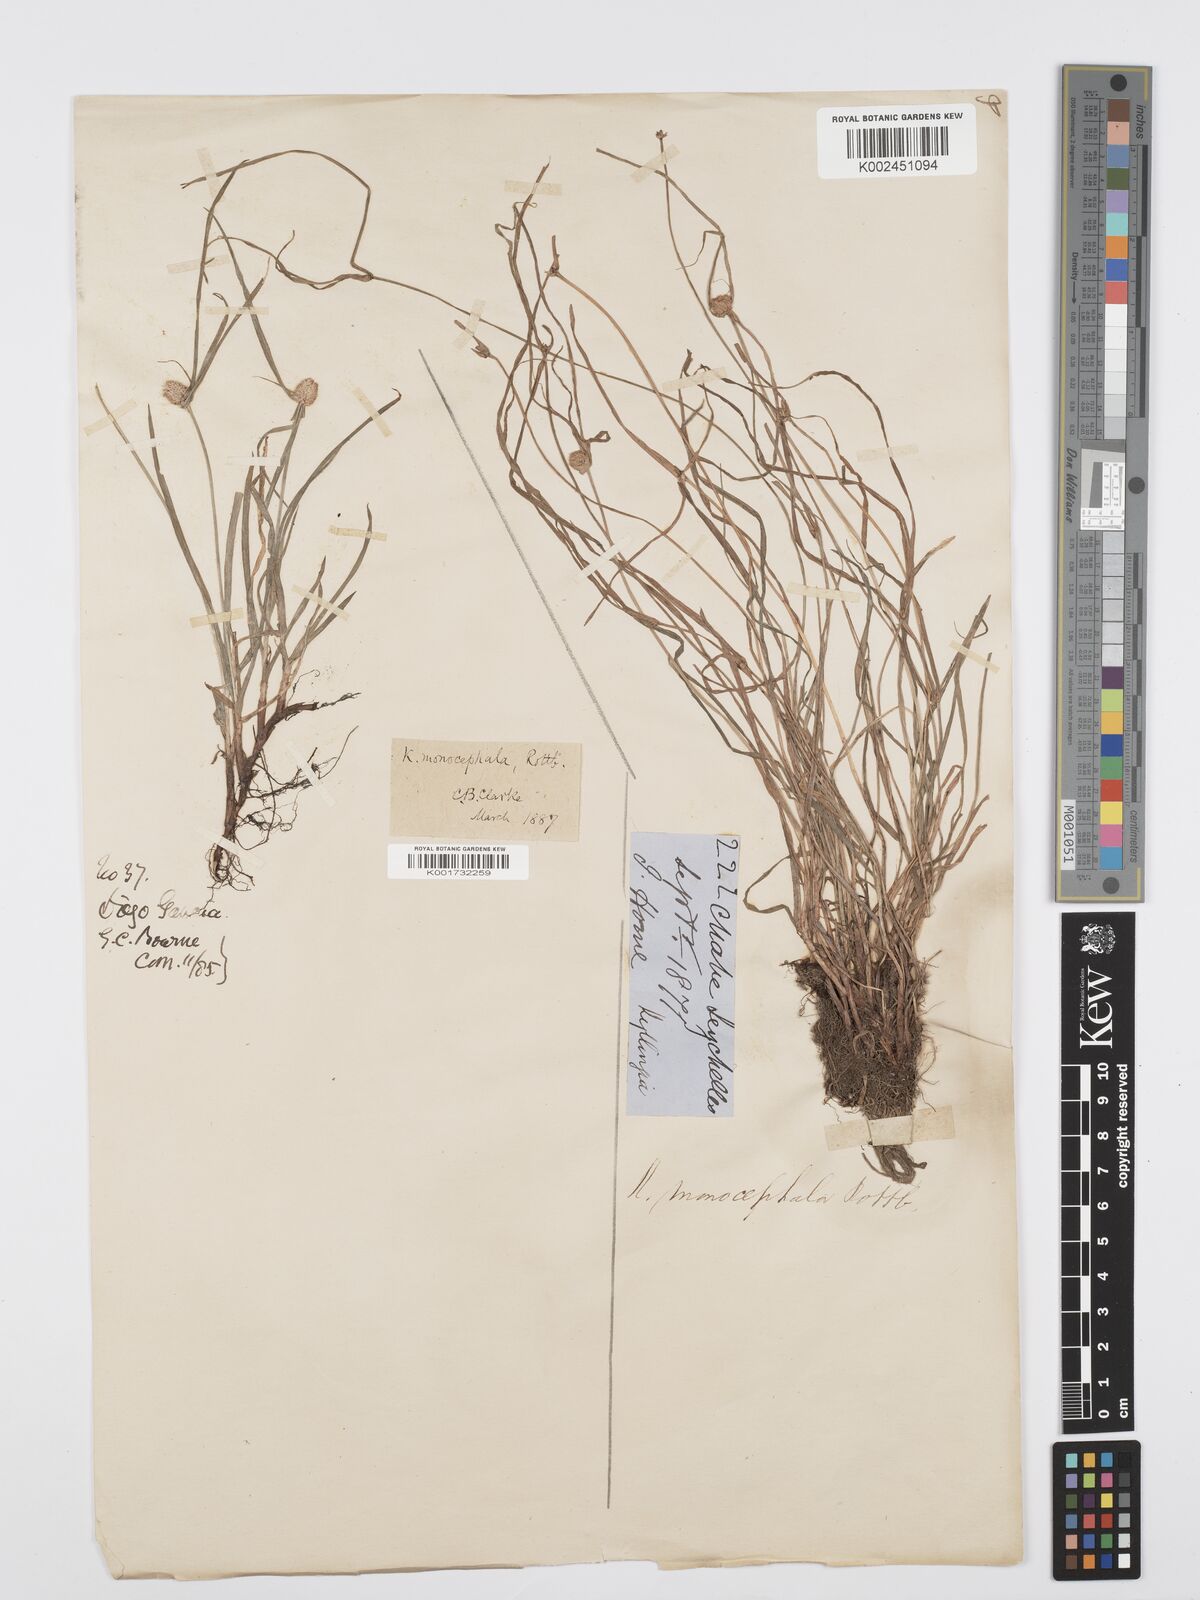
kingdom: Plantae
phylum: Tracheophyta
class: Liliopsida
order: Poales
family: Cyperaceae
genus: Cyperus
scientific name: Cyperus nemoralis
